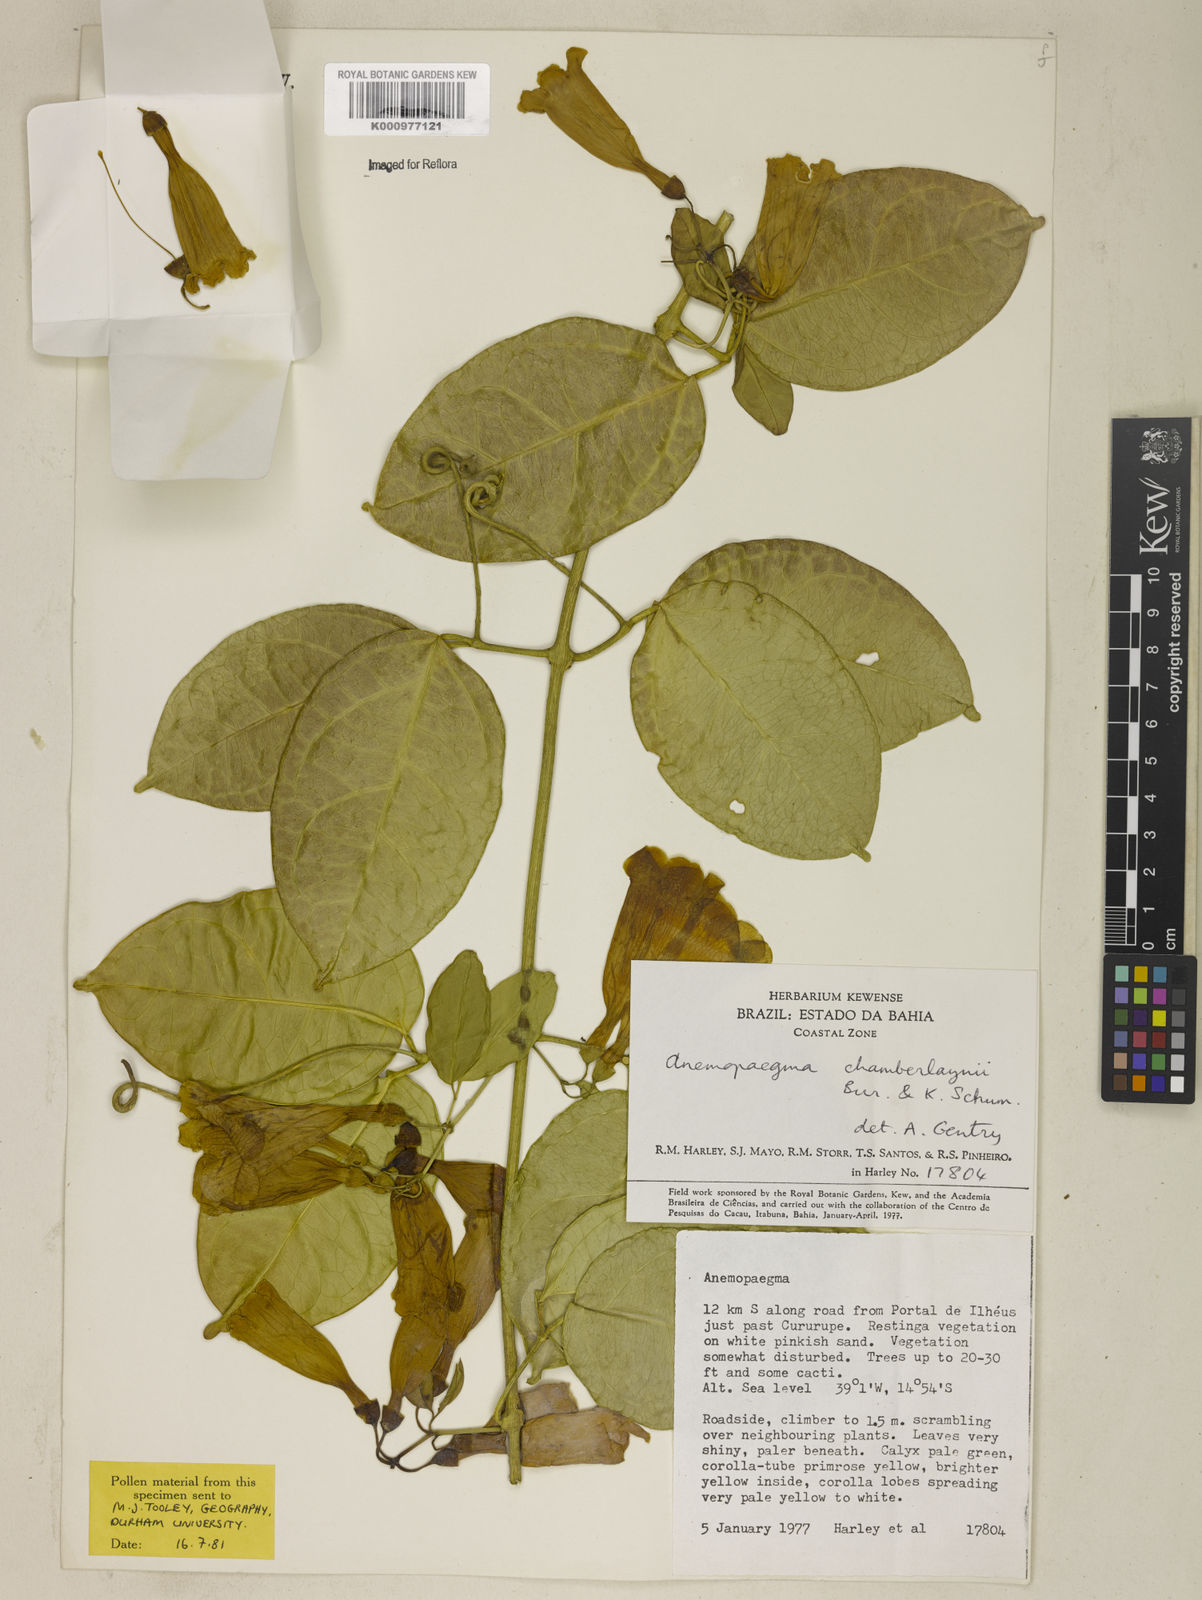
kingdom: Plantae
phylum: Tracheophyta
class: Magnoliopsida
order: Lamiales
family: Bignoniaceae
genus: Anemopaegma
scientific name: Anemopaegma chamberlaynii
